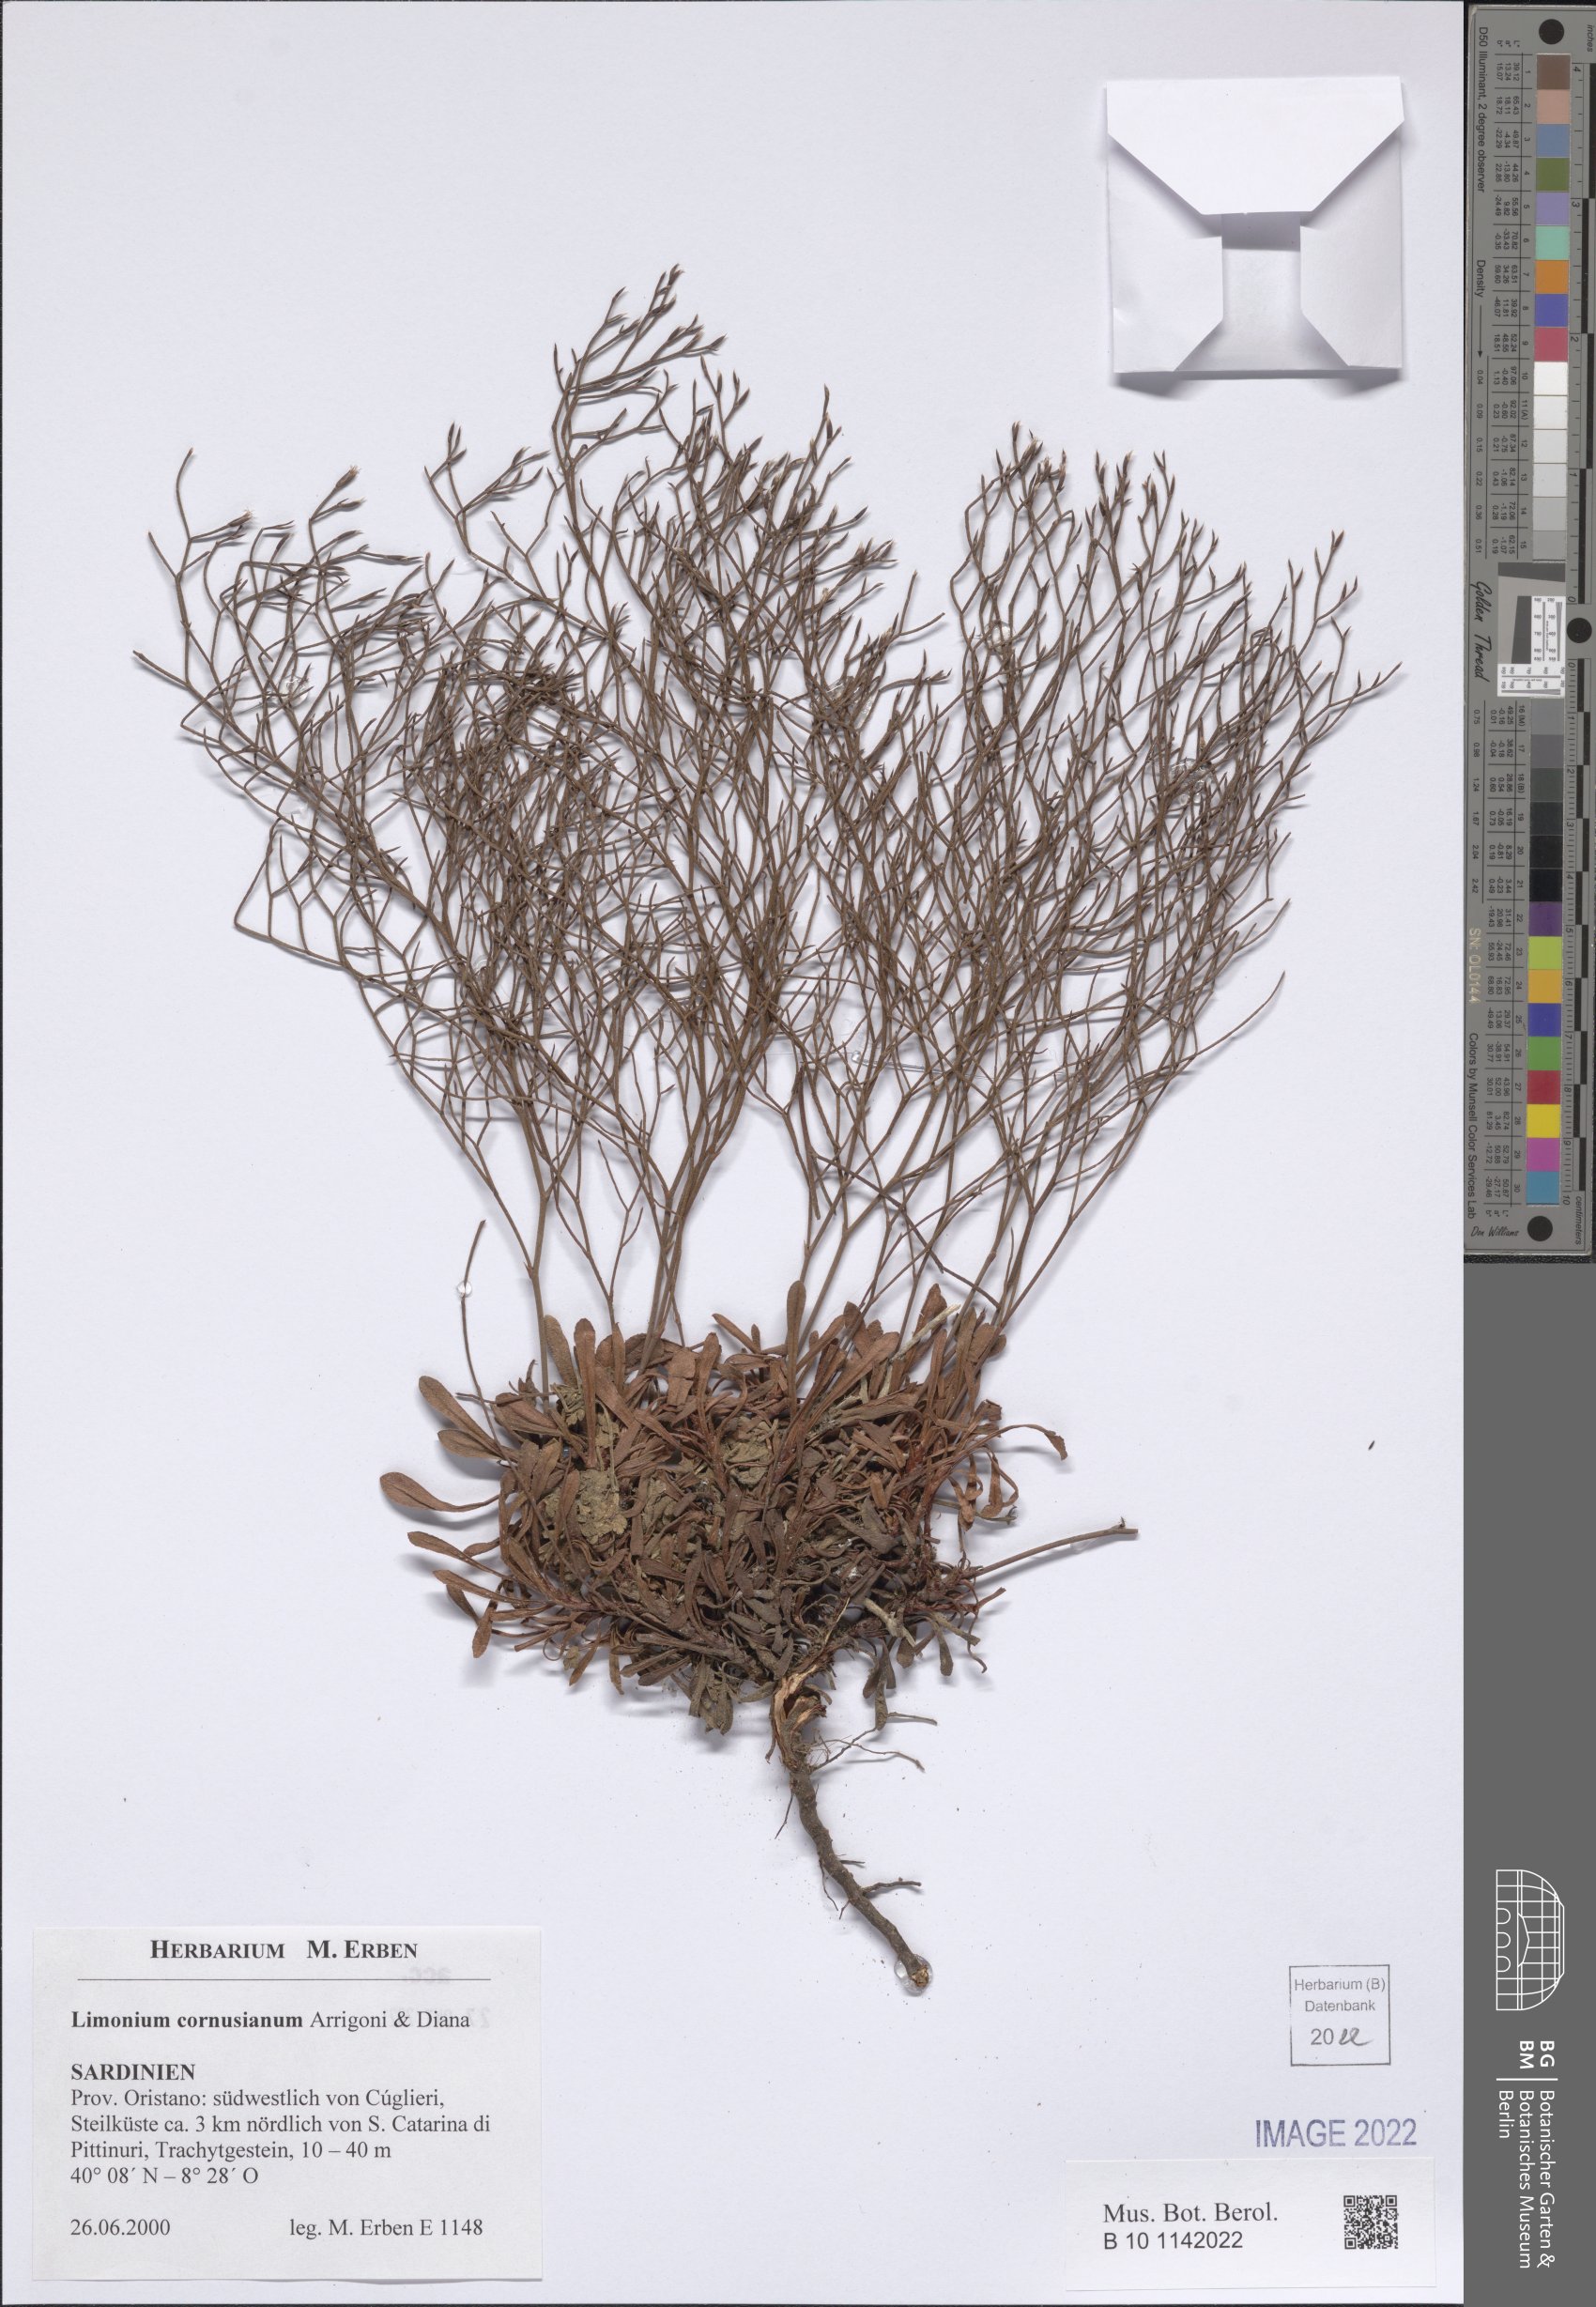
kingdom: Plantae
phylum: Tracheophyta
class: Magnoliopsida
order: Caryophyllales
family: Plumbaginaceae
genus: Limonium
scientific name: Limonium acutifolium
